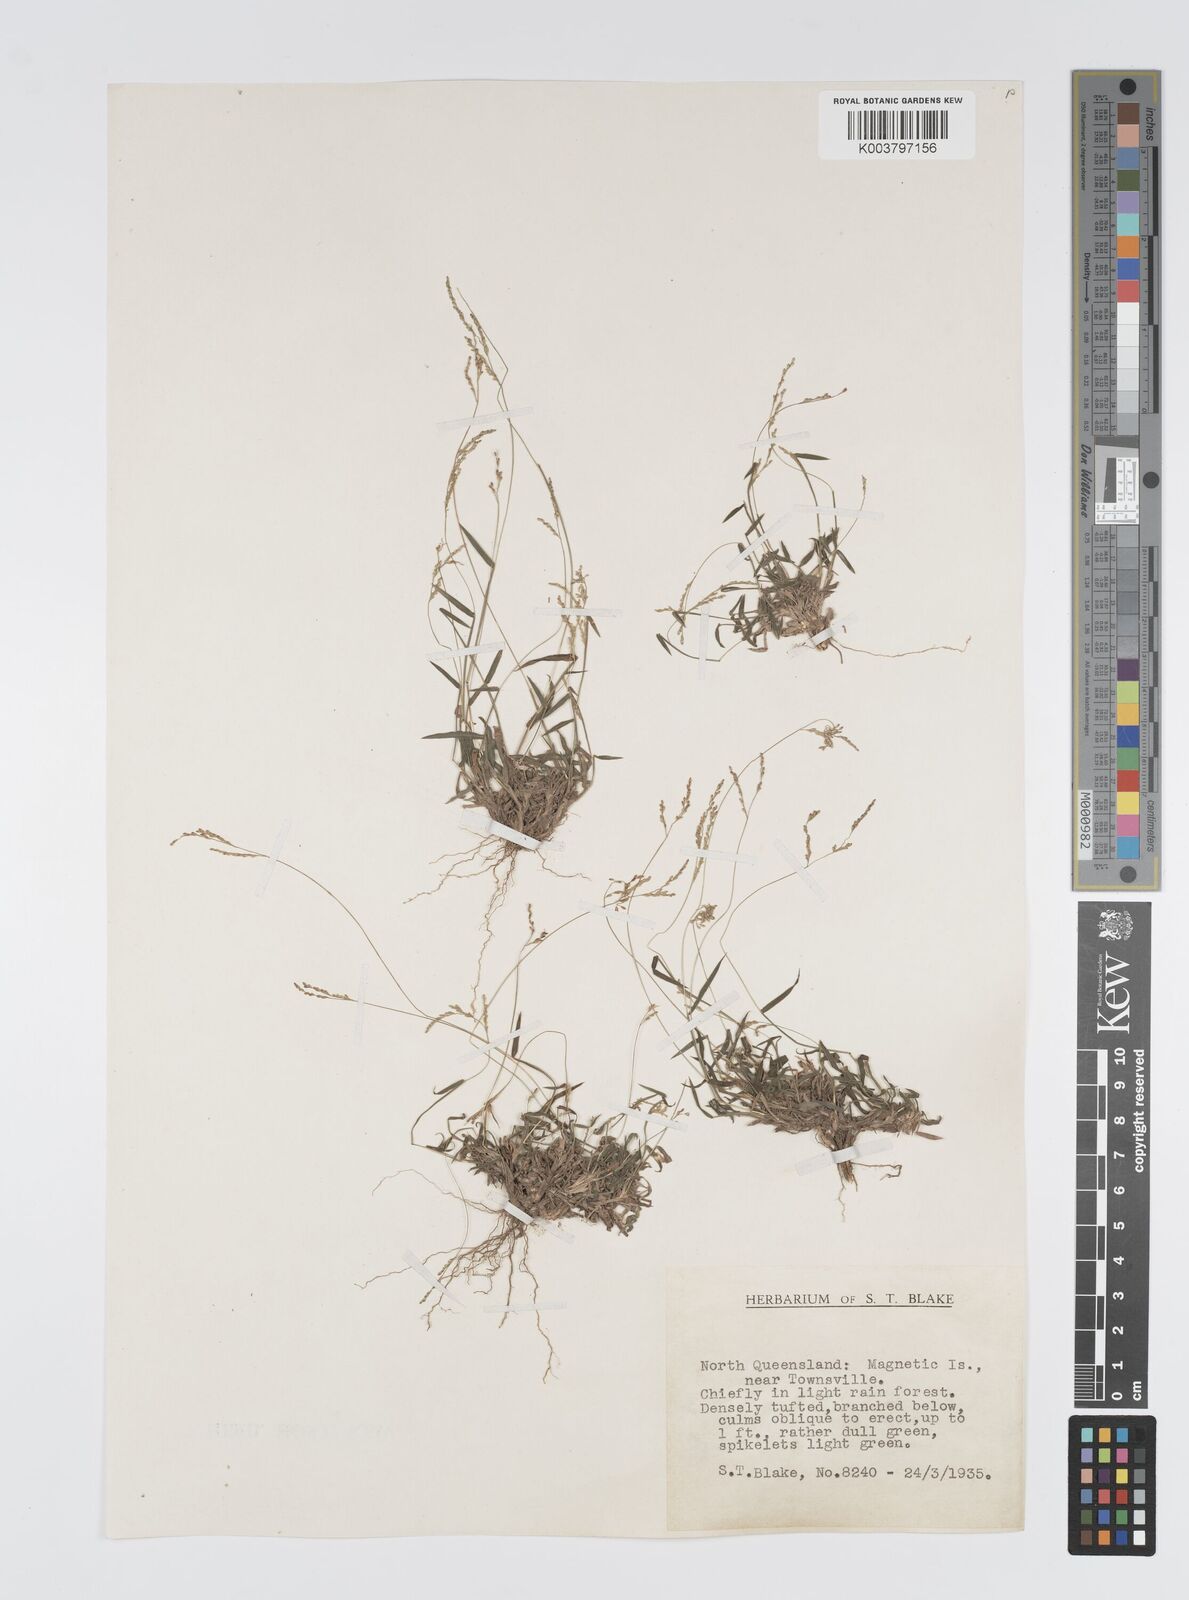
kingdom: Plantae
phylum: Tracheophyta
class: Liliopsida
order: Poales
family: Poaceae
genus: Digitaria
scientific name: Digitaria spec
